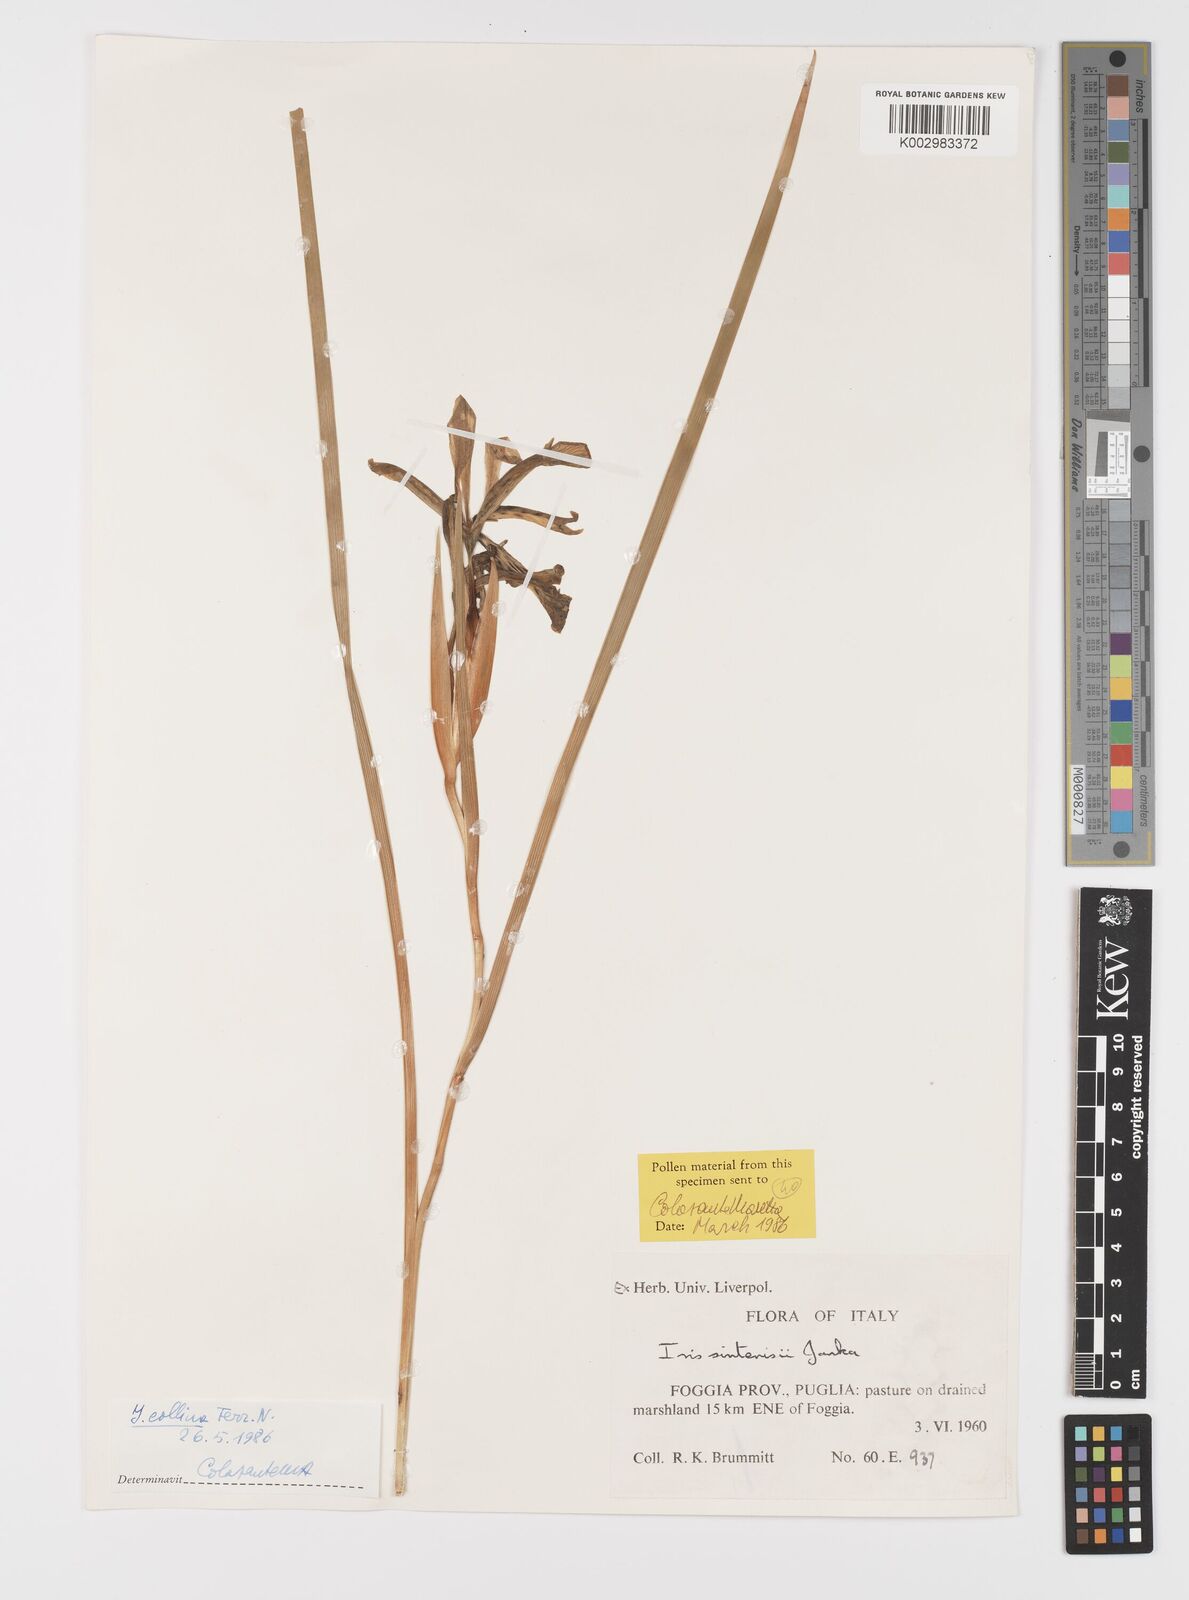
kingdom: Plantae
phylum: Tracheophyta
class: Liliopsida
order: Asparagales
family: Iridaceae
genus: Iris
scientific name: Iris sintenisii
